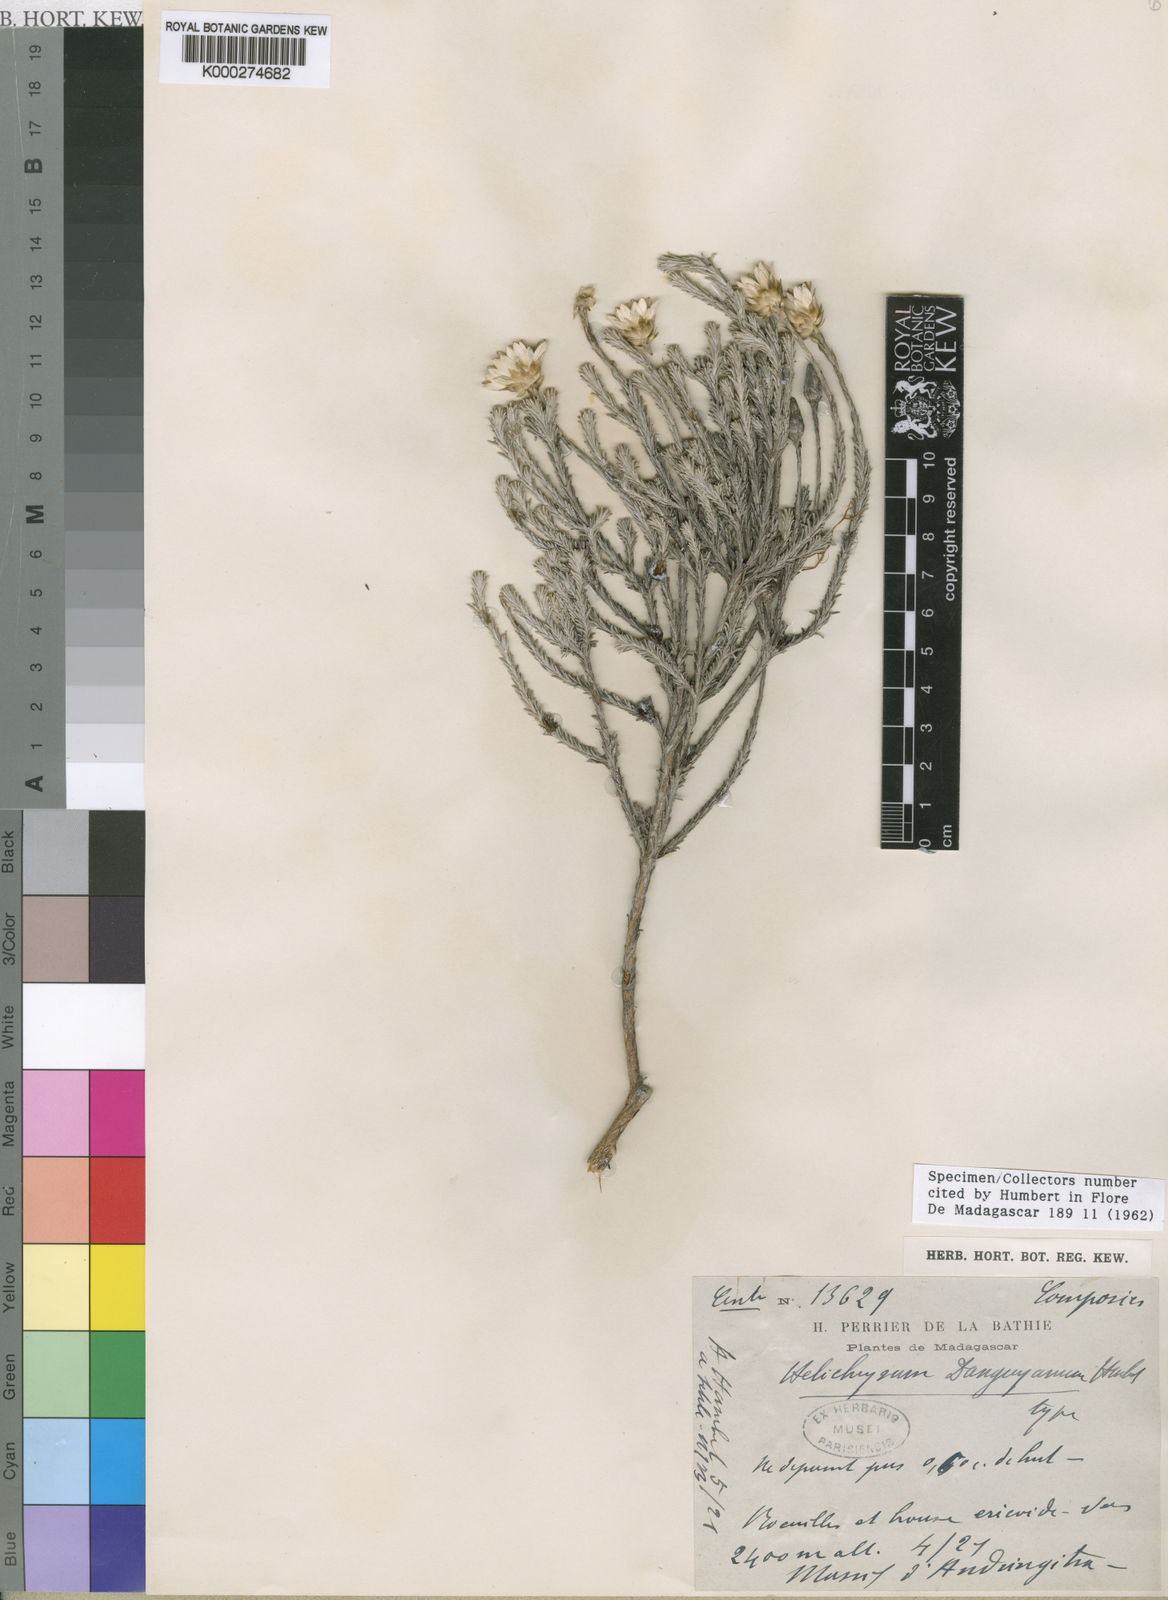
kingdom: Plantae
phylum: Tracheophyta
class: Magnoliopsida
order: Asterales
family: Asteraceae
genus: Helichrysum
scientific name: Helichrysum danguyanum
